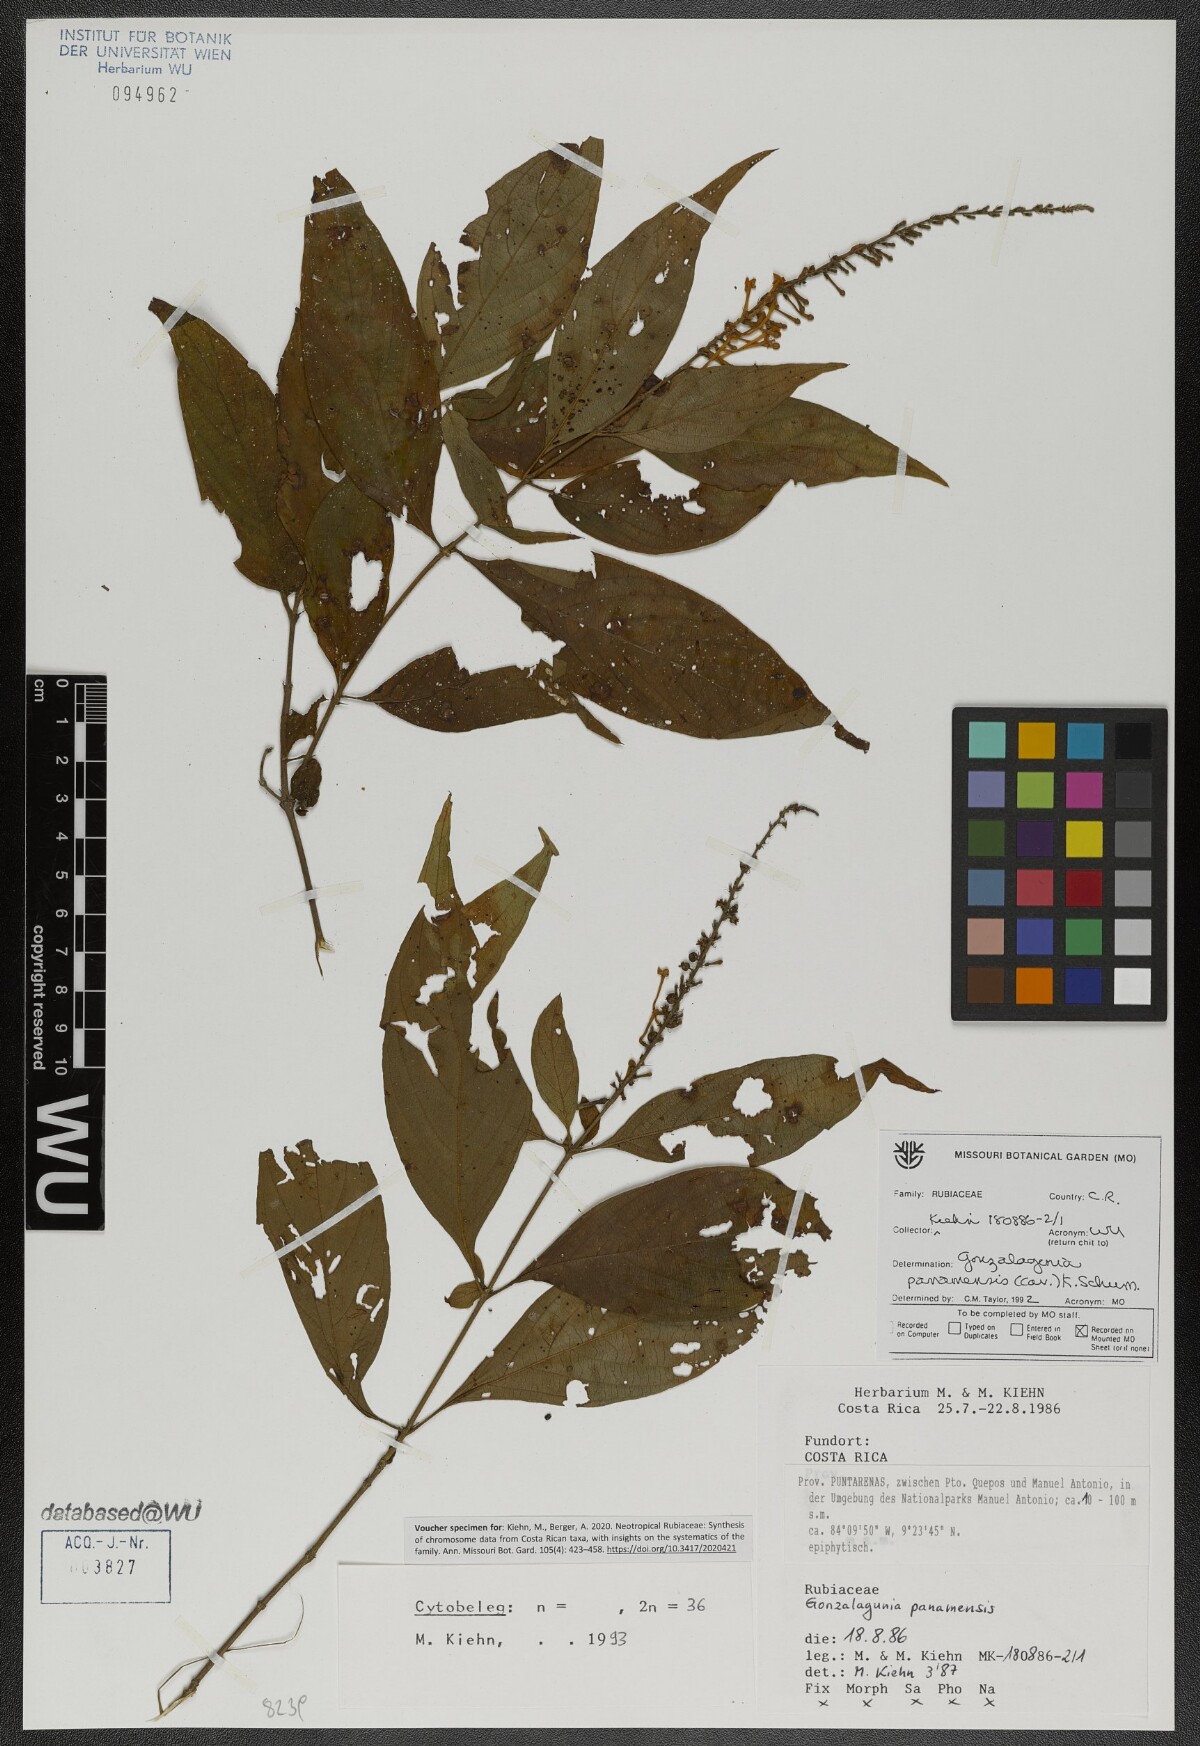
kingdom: Plantae
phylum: Tracheophyta
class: Magnoliopsida
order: Gentianales
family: Rubiaceae
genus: Gonzalagunia
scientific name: Gonzalagunia panamensis
